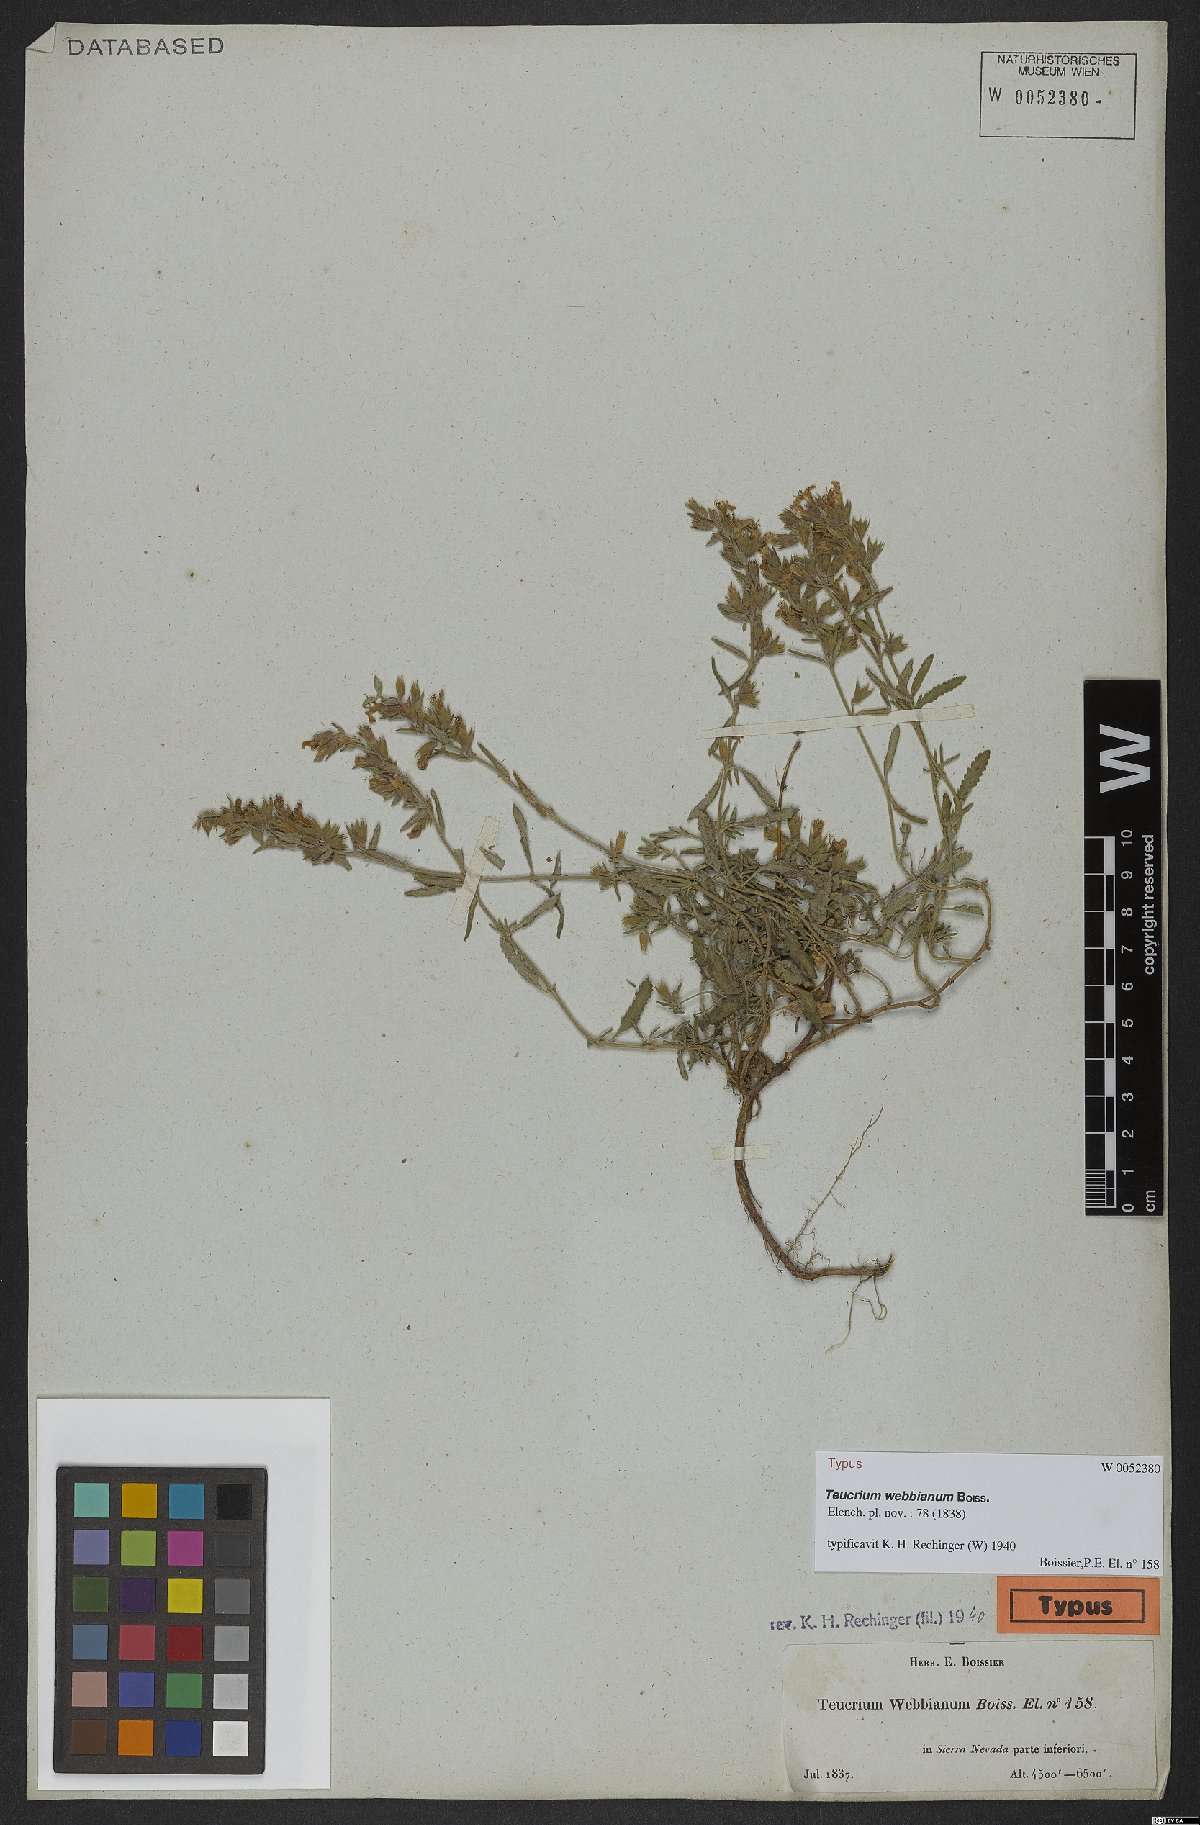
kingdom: Plantae
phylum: Tracheophyta
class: Magnoliopsida
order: Lamiales
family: Lamiaceae
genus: Teucrium
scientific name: Teucrium webbianum
